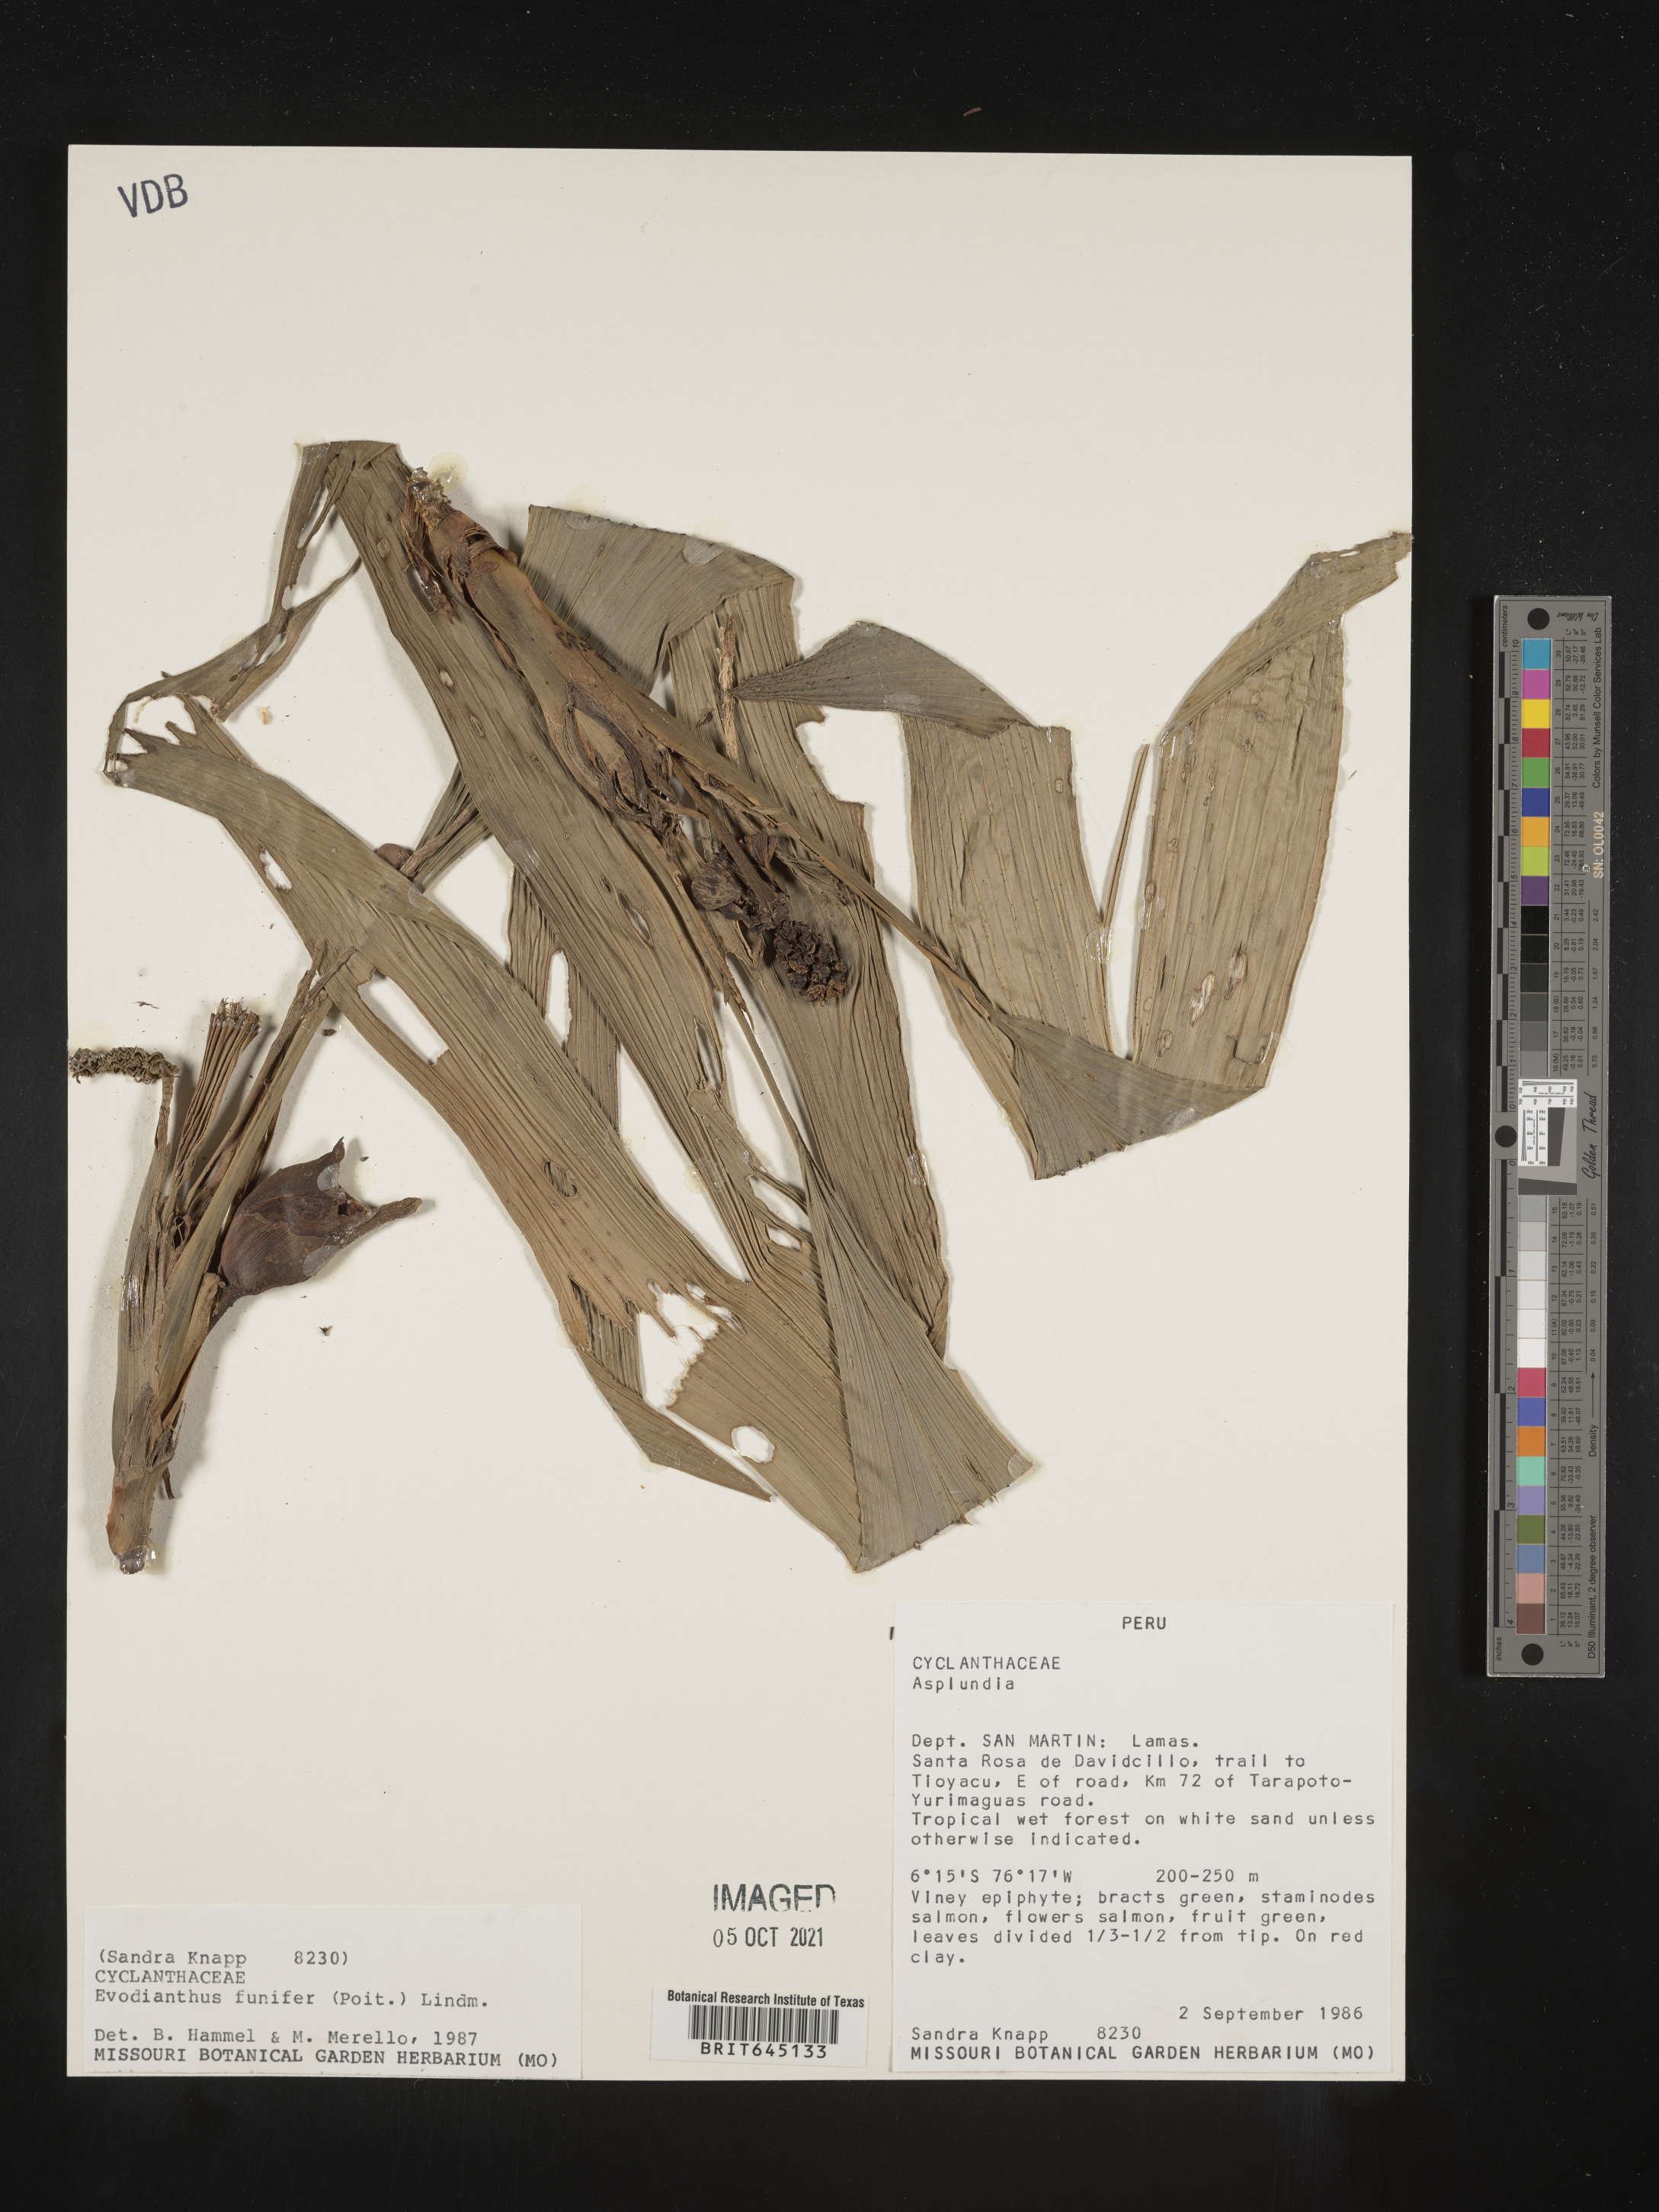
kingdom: Plantae
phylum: Tracheophyta
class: Liliopsida
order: Pandanales
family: Cyclanthaceae
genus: Evodianthus
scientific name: Evodianthus funifer
